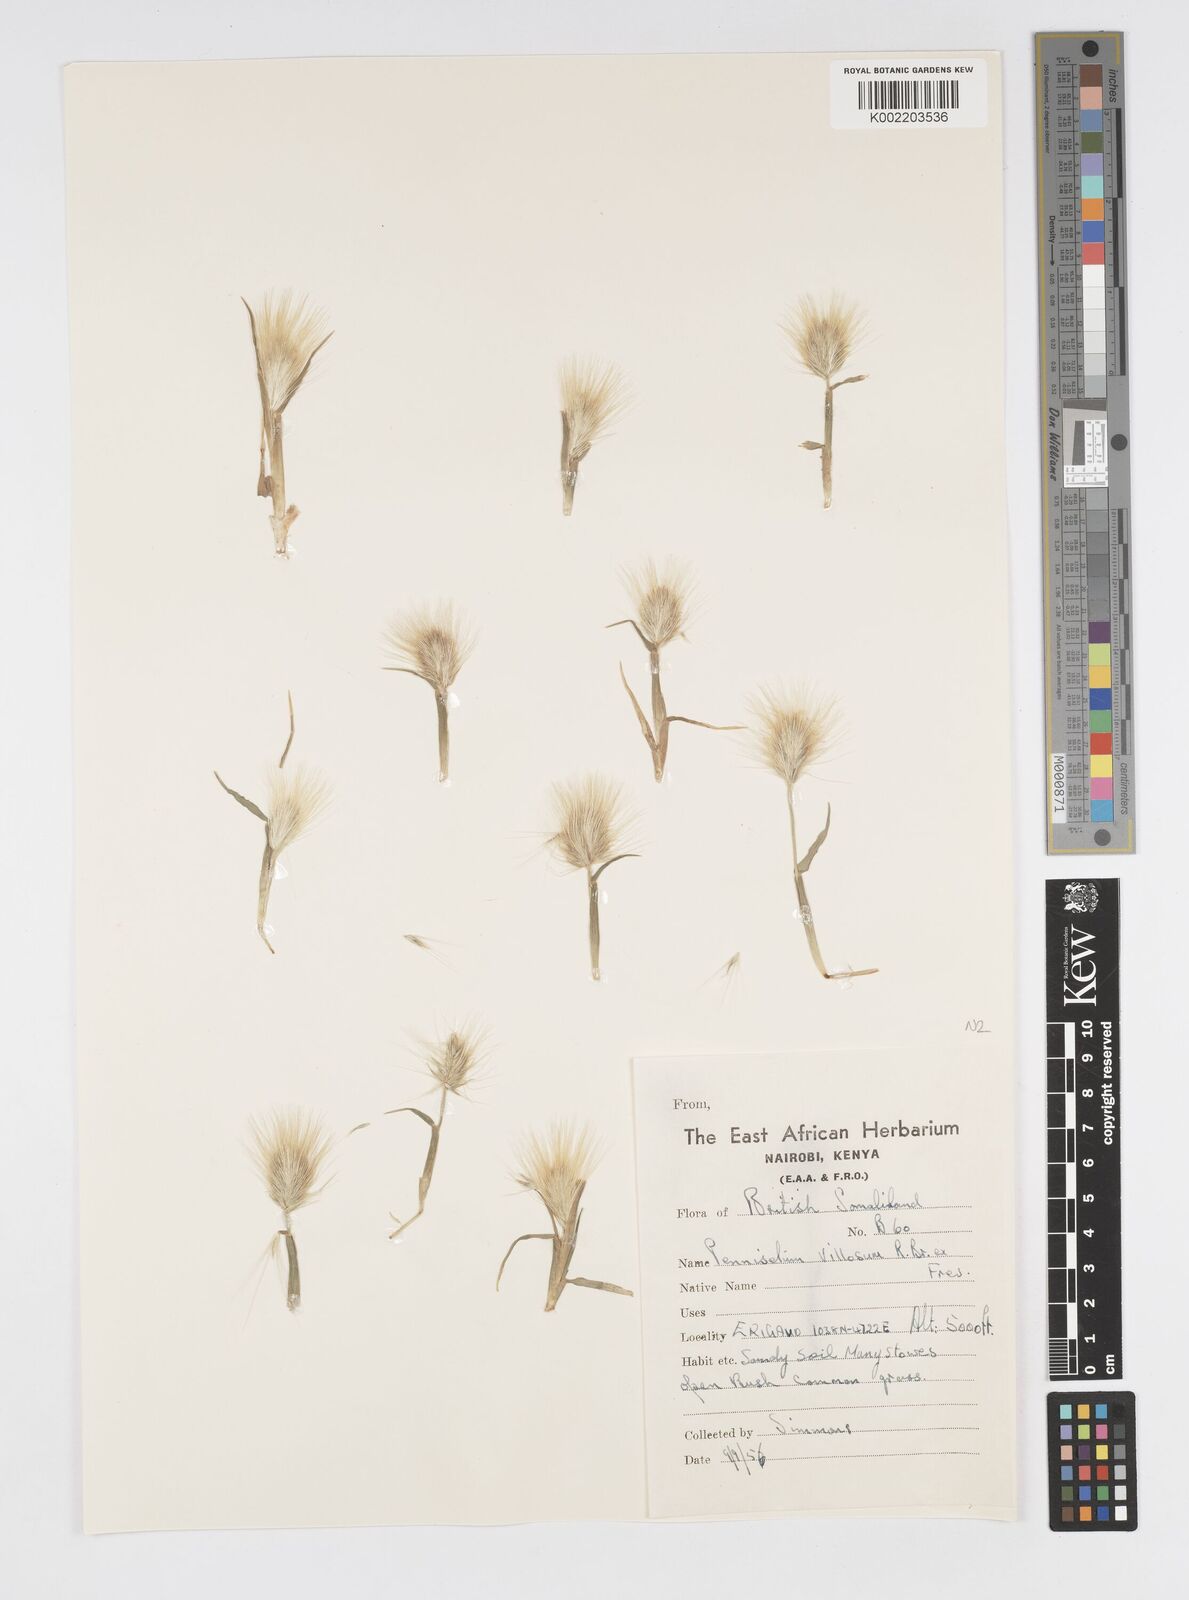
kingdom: Plantae
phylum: Tracheophyta
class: Liliopsida
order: Poales
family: Poaceae
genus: Cenchrus
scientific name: Cenchrus longisetus
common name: Feathertop
